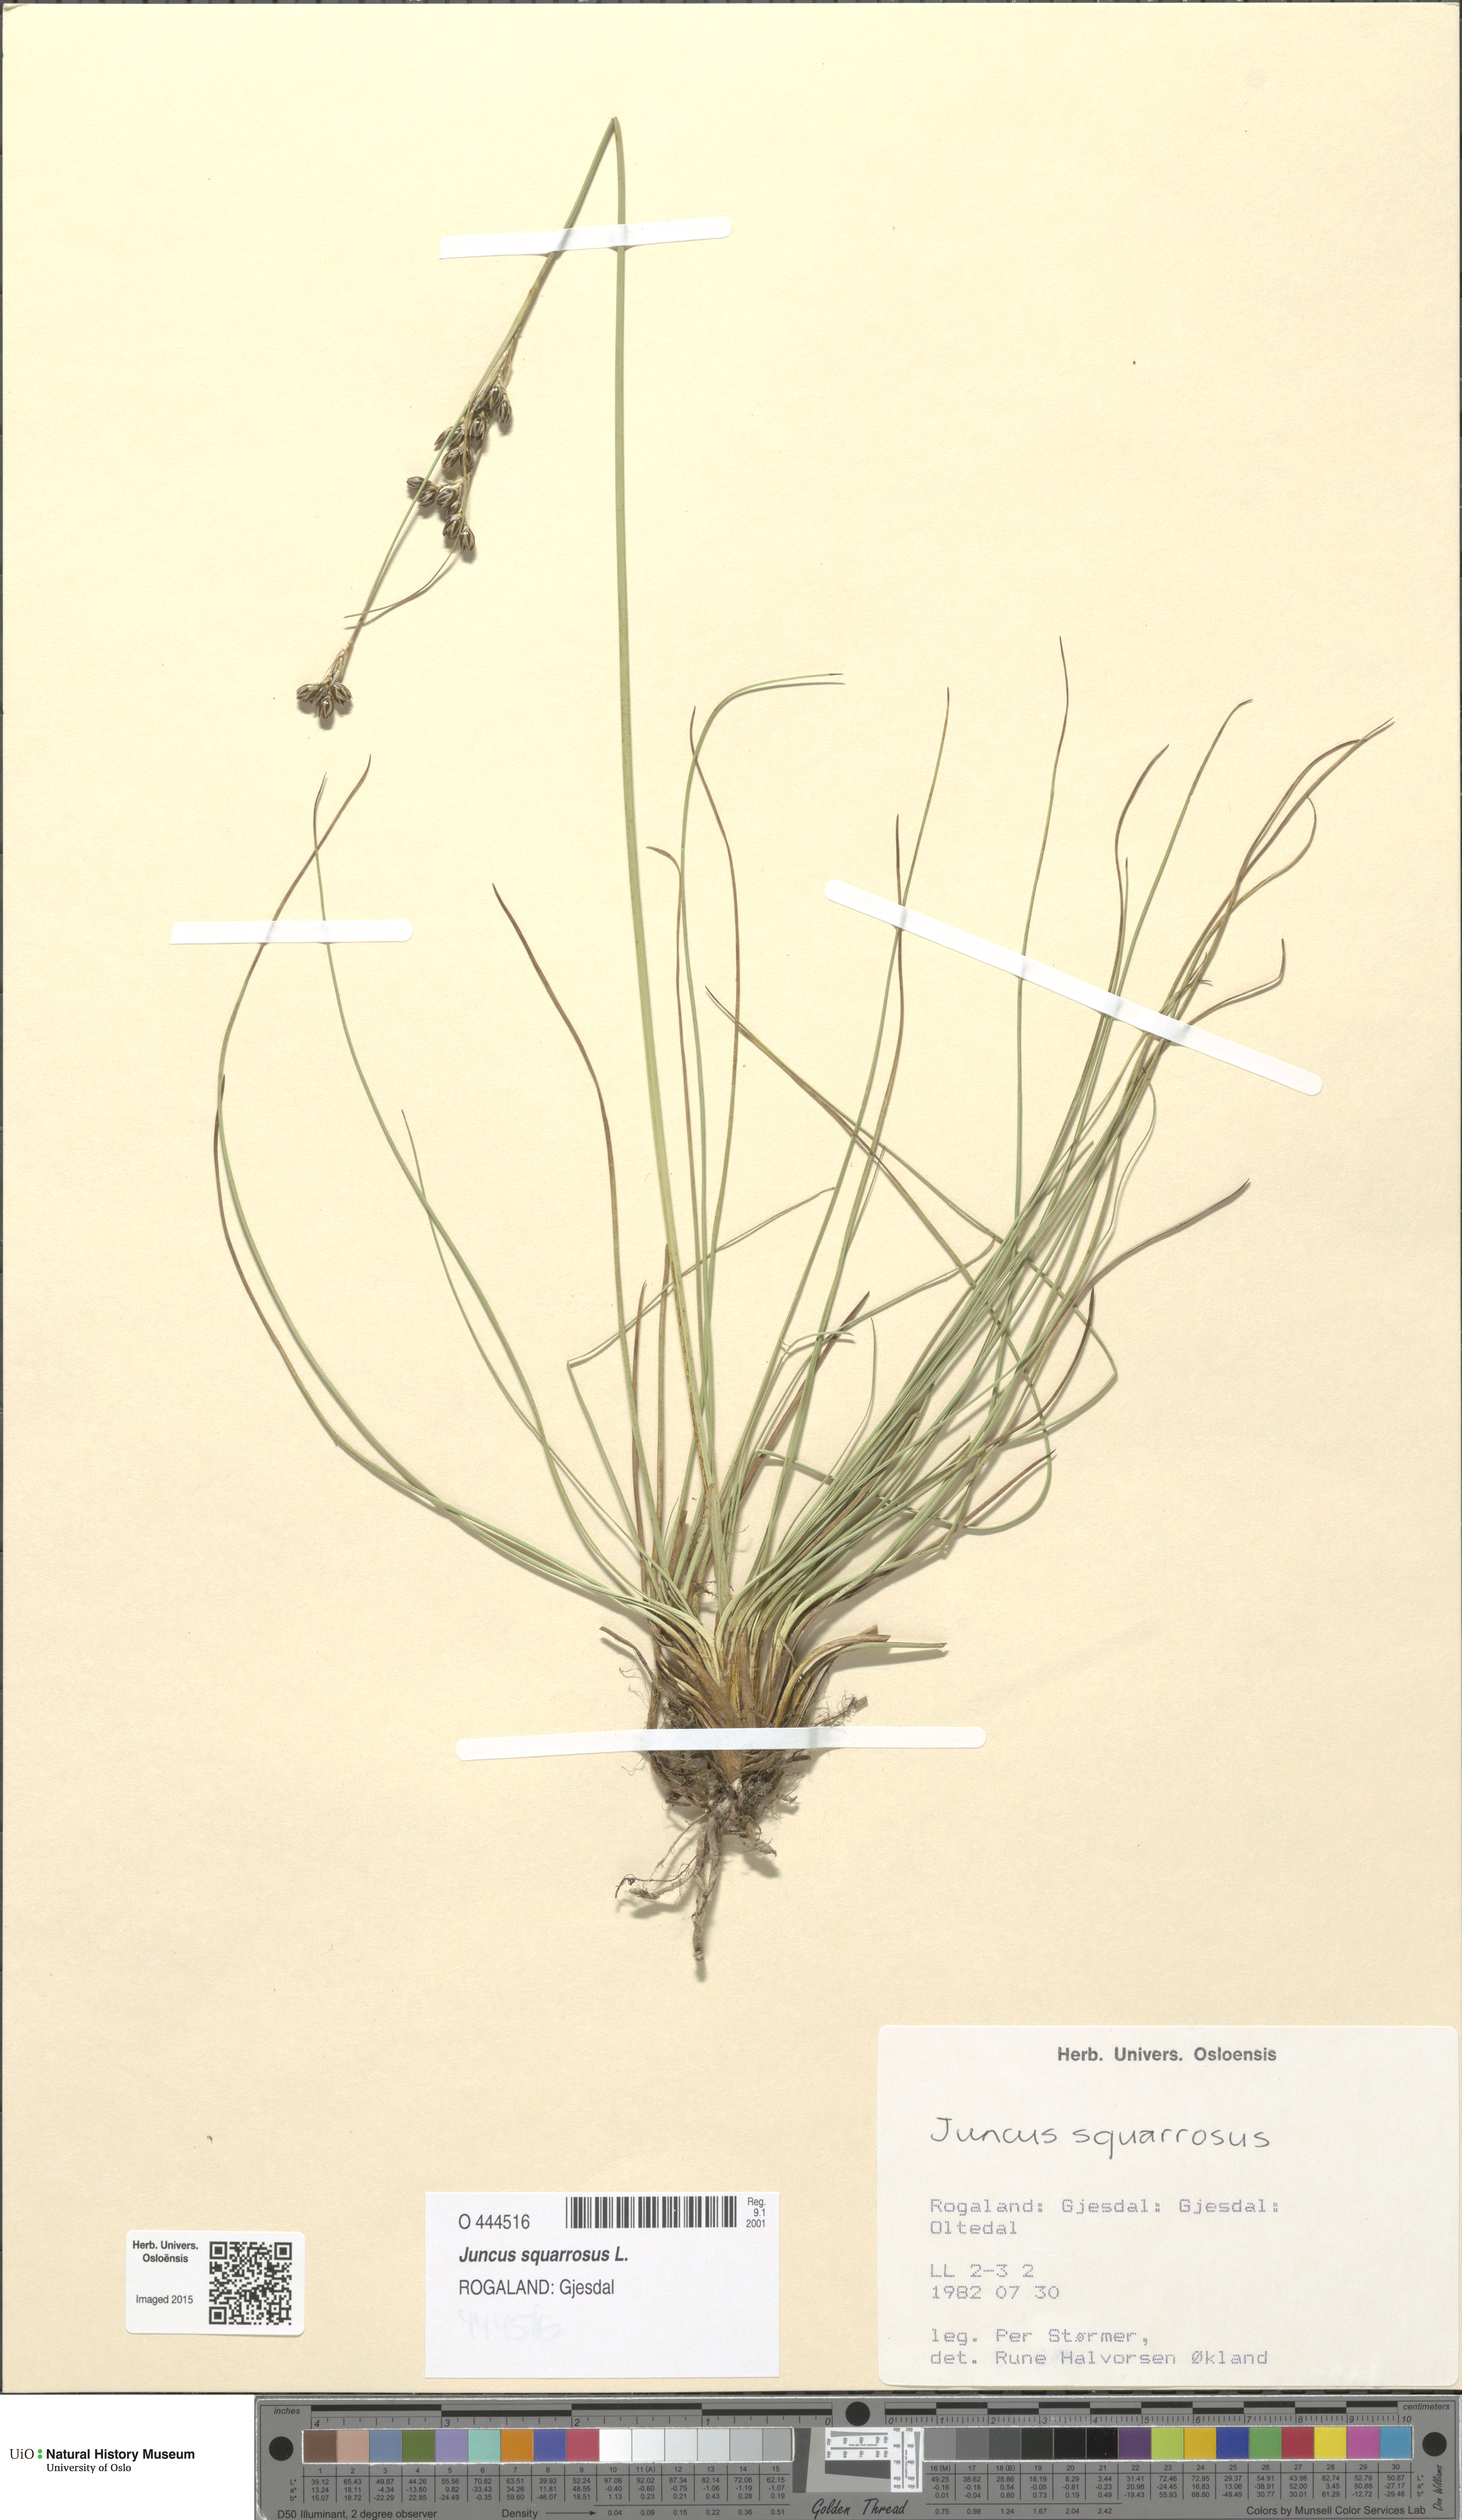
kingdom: Plantae
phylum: Tracheophyta
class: Liliopsida
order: Poales
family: Juncaceae
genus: Juncus
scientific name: Juncus squarrosus
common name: Heath rush
